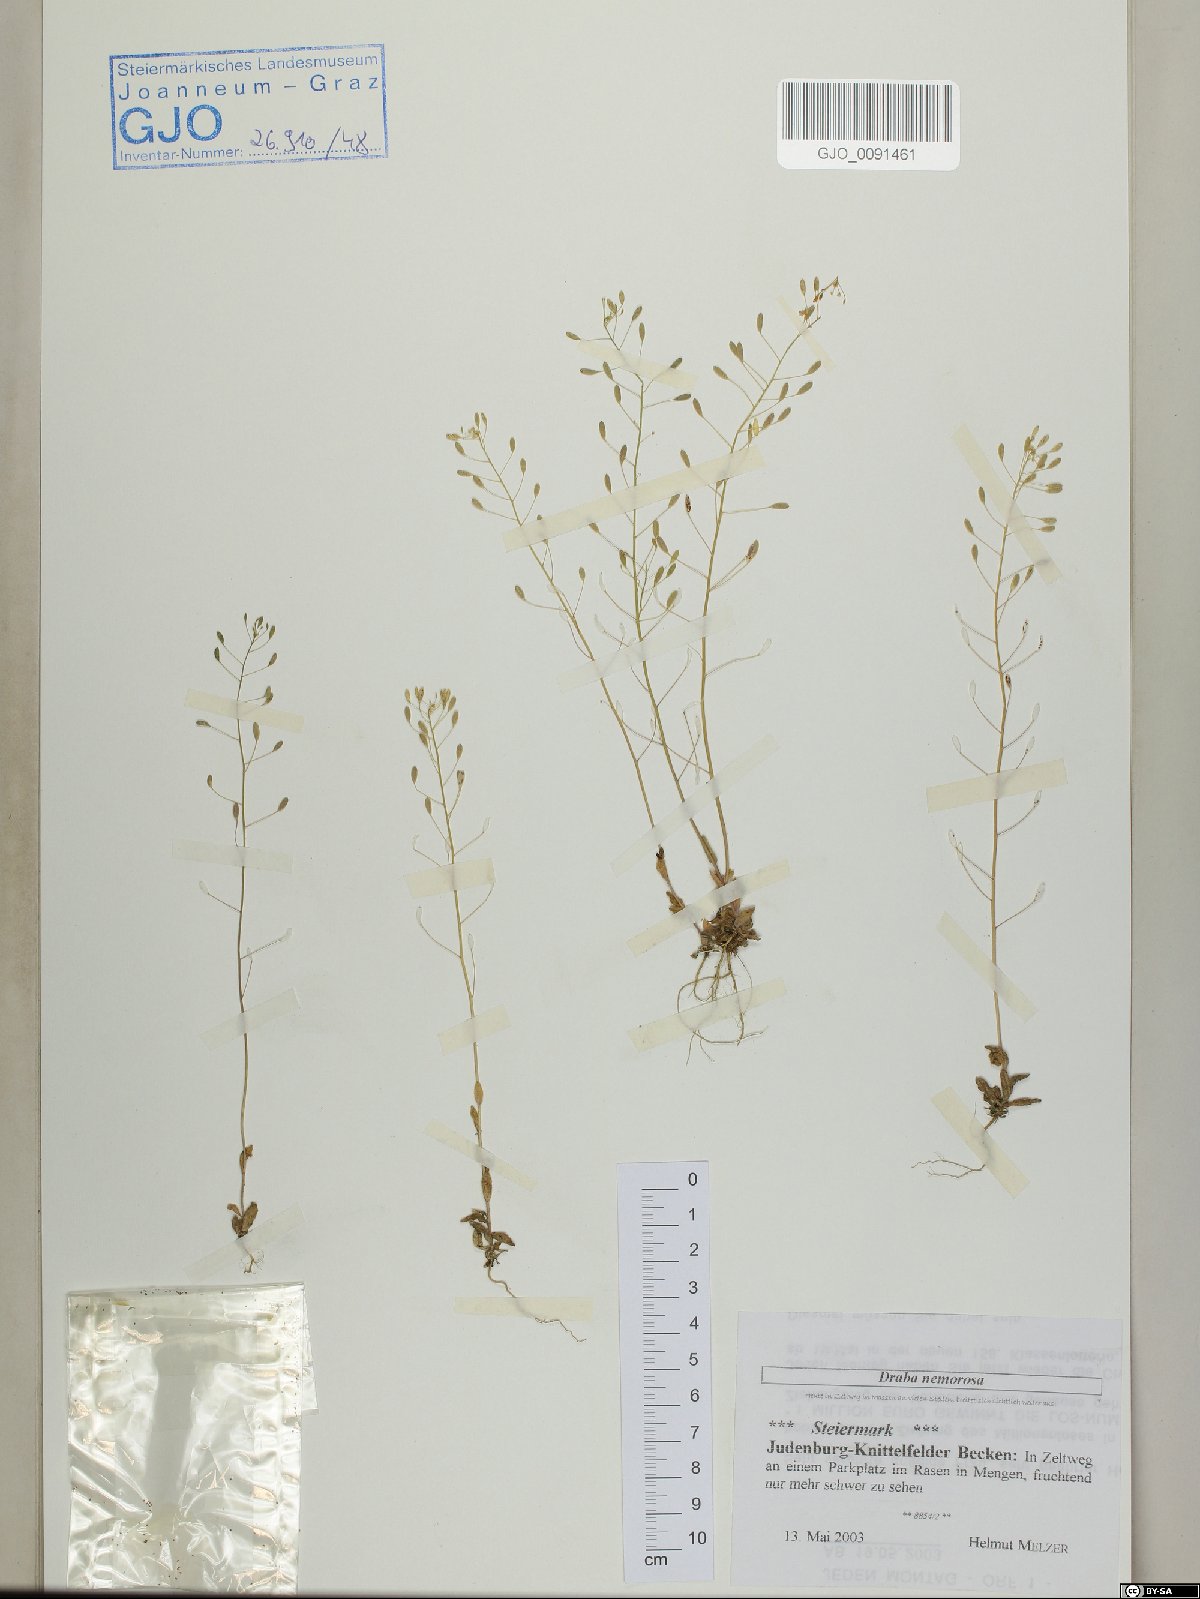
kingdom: Plantae
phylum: Tracheophyta
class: Magnoliopsida
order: Brassicales
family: Brassicaceae
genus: Draba
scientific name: Draba nemorosa
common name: Wood whitlow-grass
